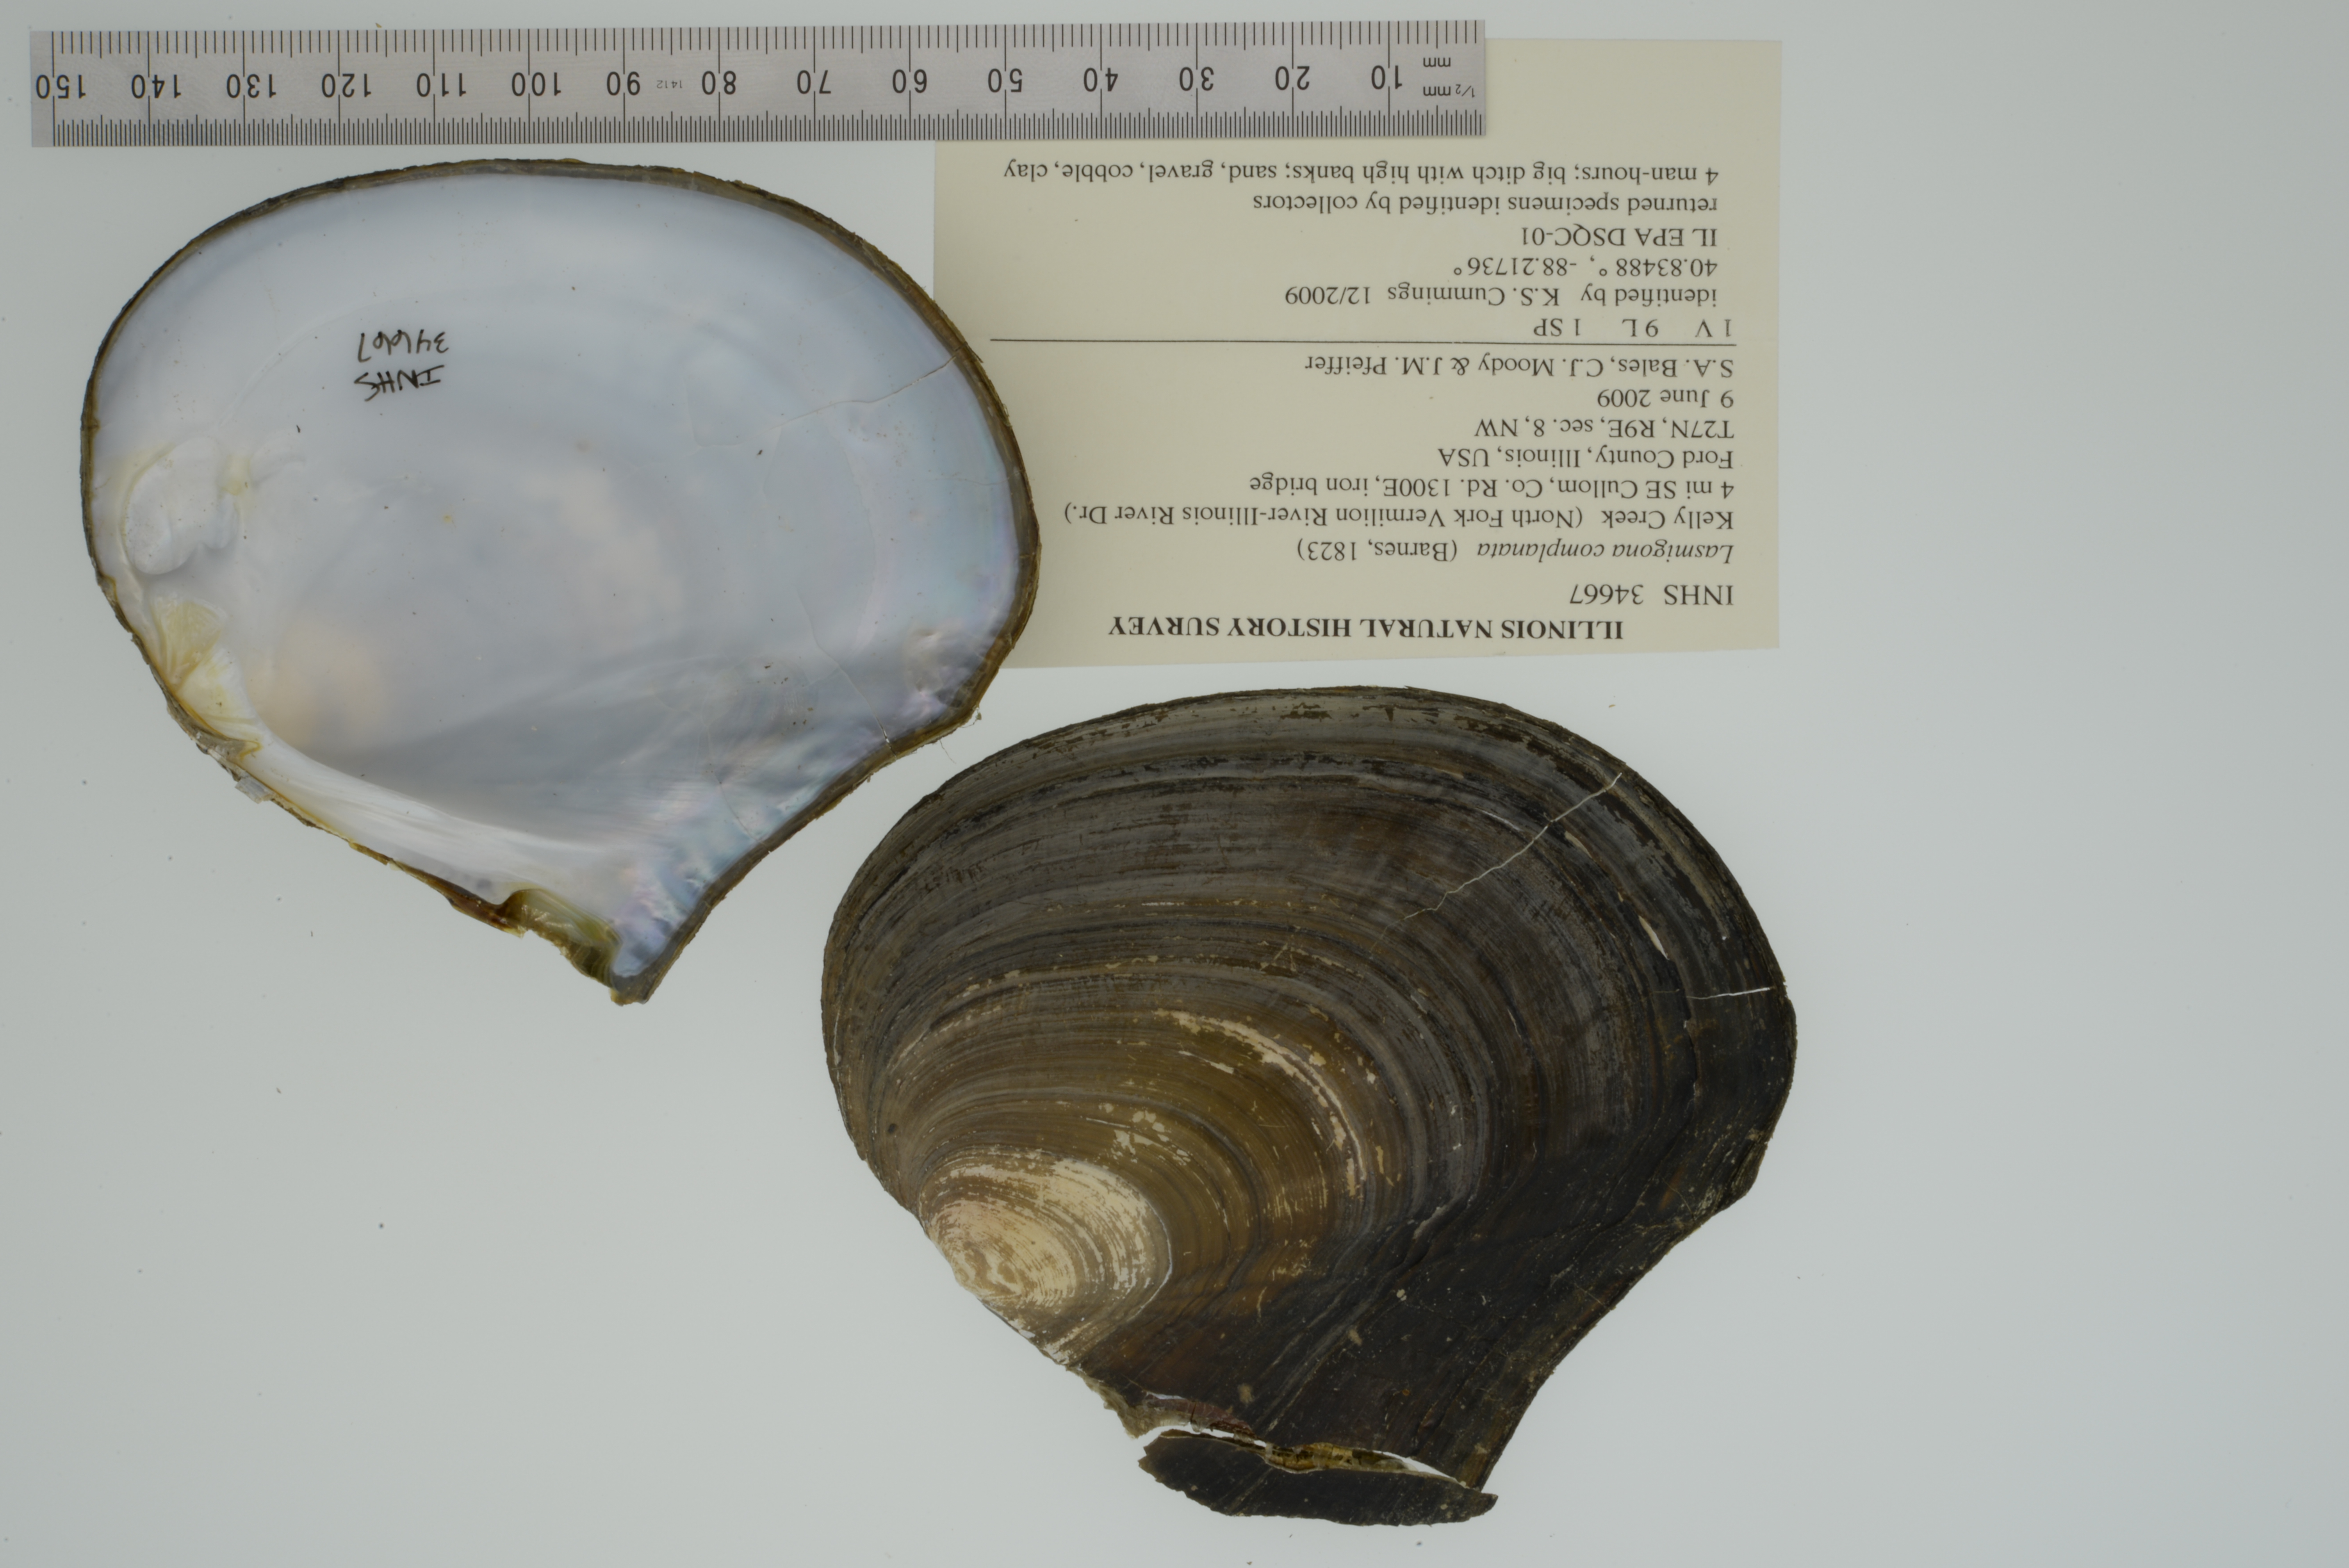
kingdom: Animalia
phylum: Mollusca
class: Bivalvia
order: Unionida
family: Unionidae
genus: Lasmigona
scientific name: Lasmigona complanata
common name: White heelsplitter
